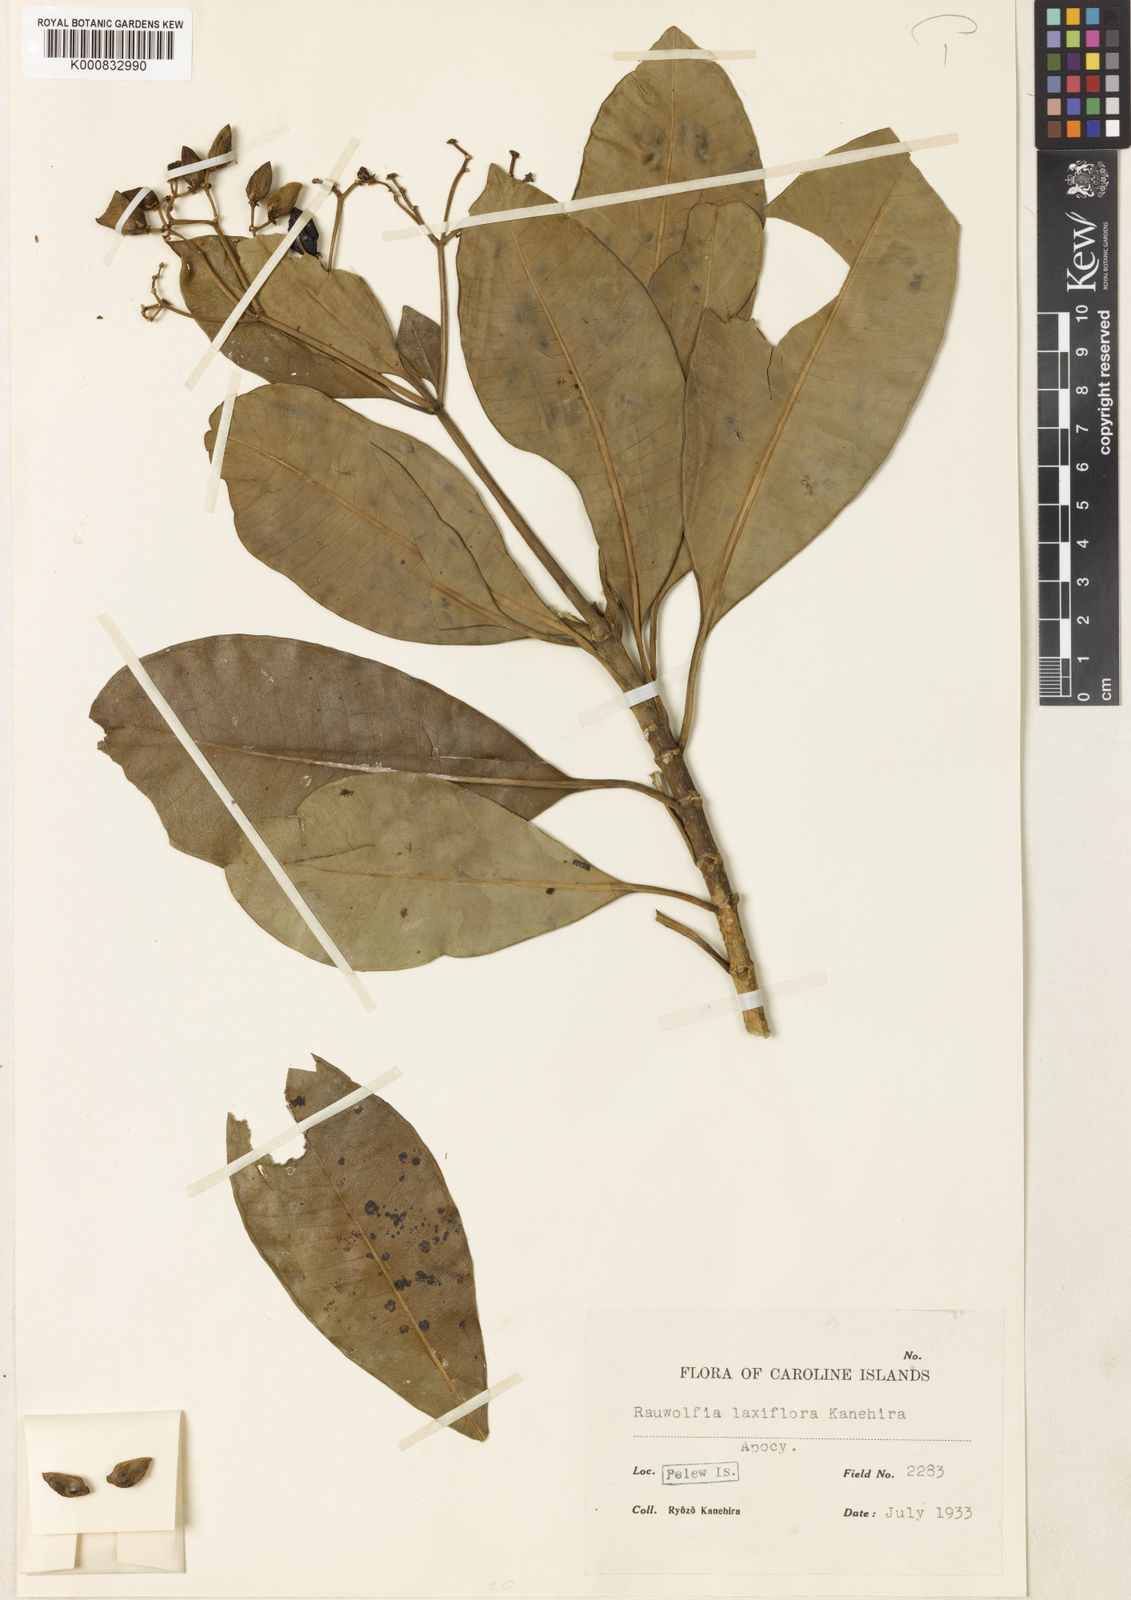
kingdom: Plantae
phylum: Tracheophyta
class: Magnoliopsida
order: Gentianales
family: Apocynaceae
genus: Rauvolfia
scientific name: Rauvolfia insularis
